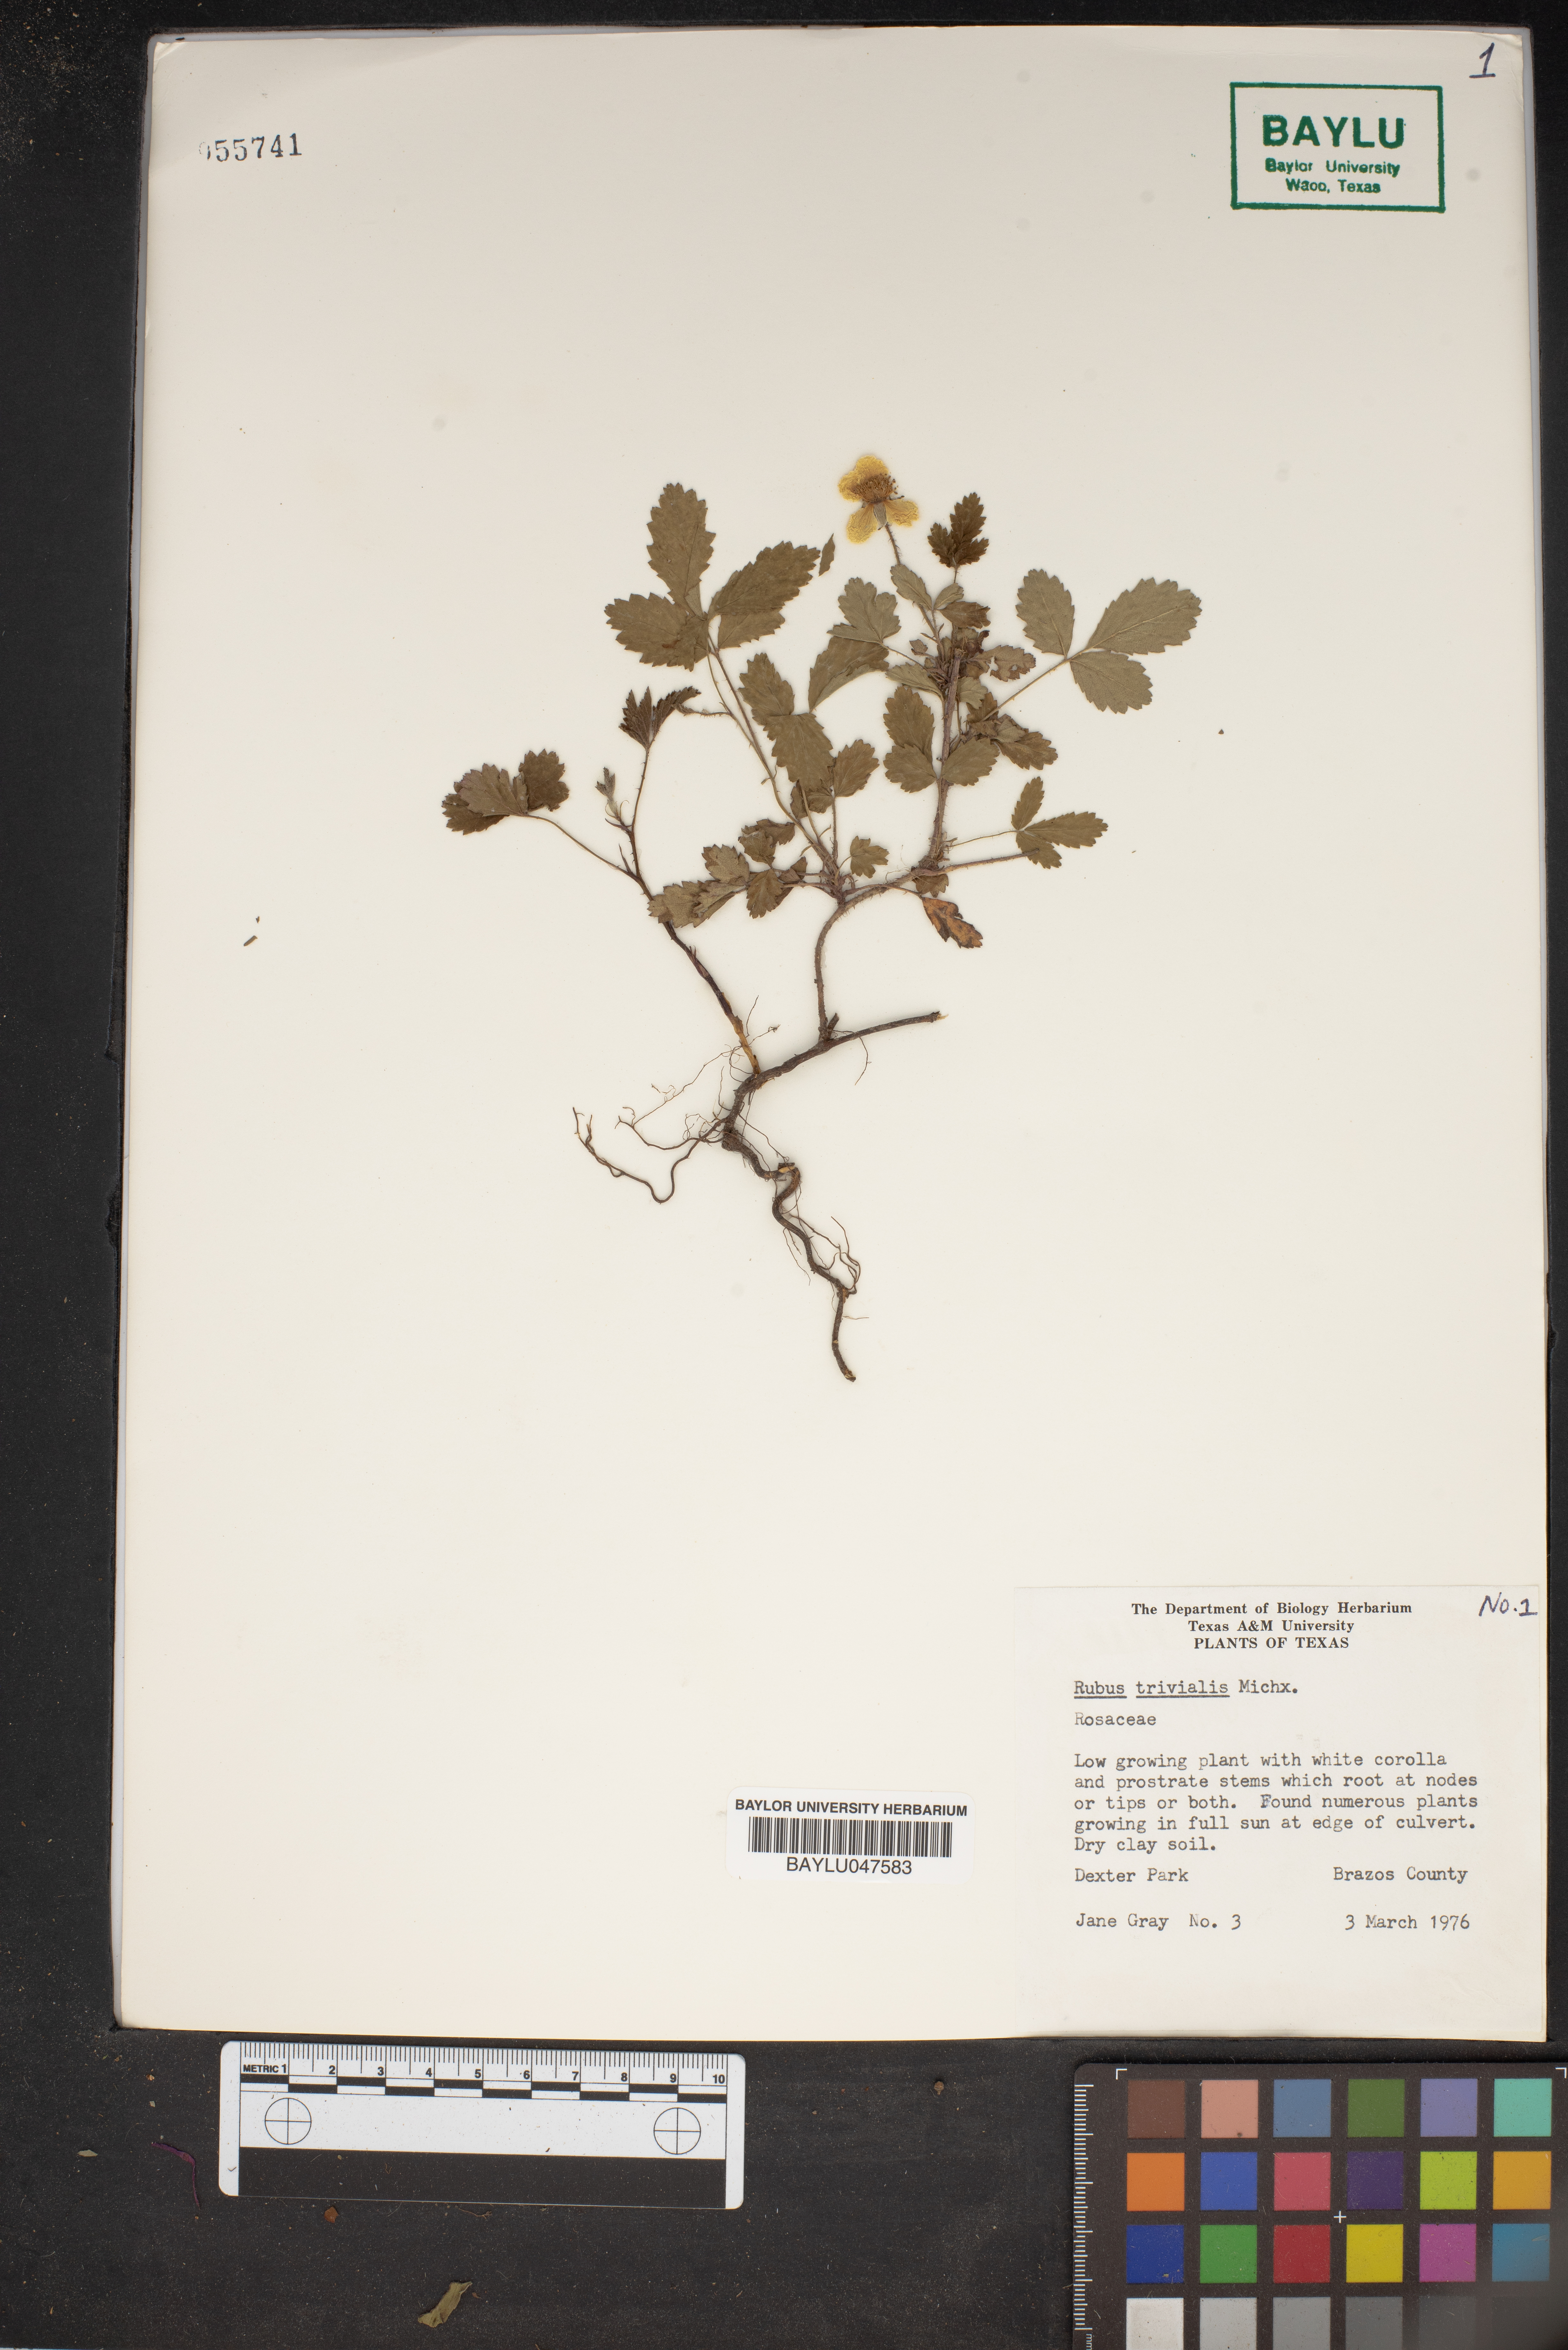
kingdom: Plantae
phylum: Tracheophyta
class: Magnoliopsida
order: Rosales
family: Rosaceae
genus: Rubus
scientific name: Rubus trivialis
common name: Southern dewberry
